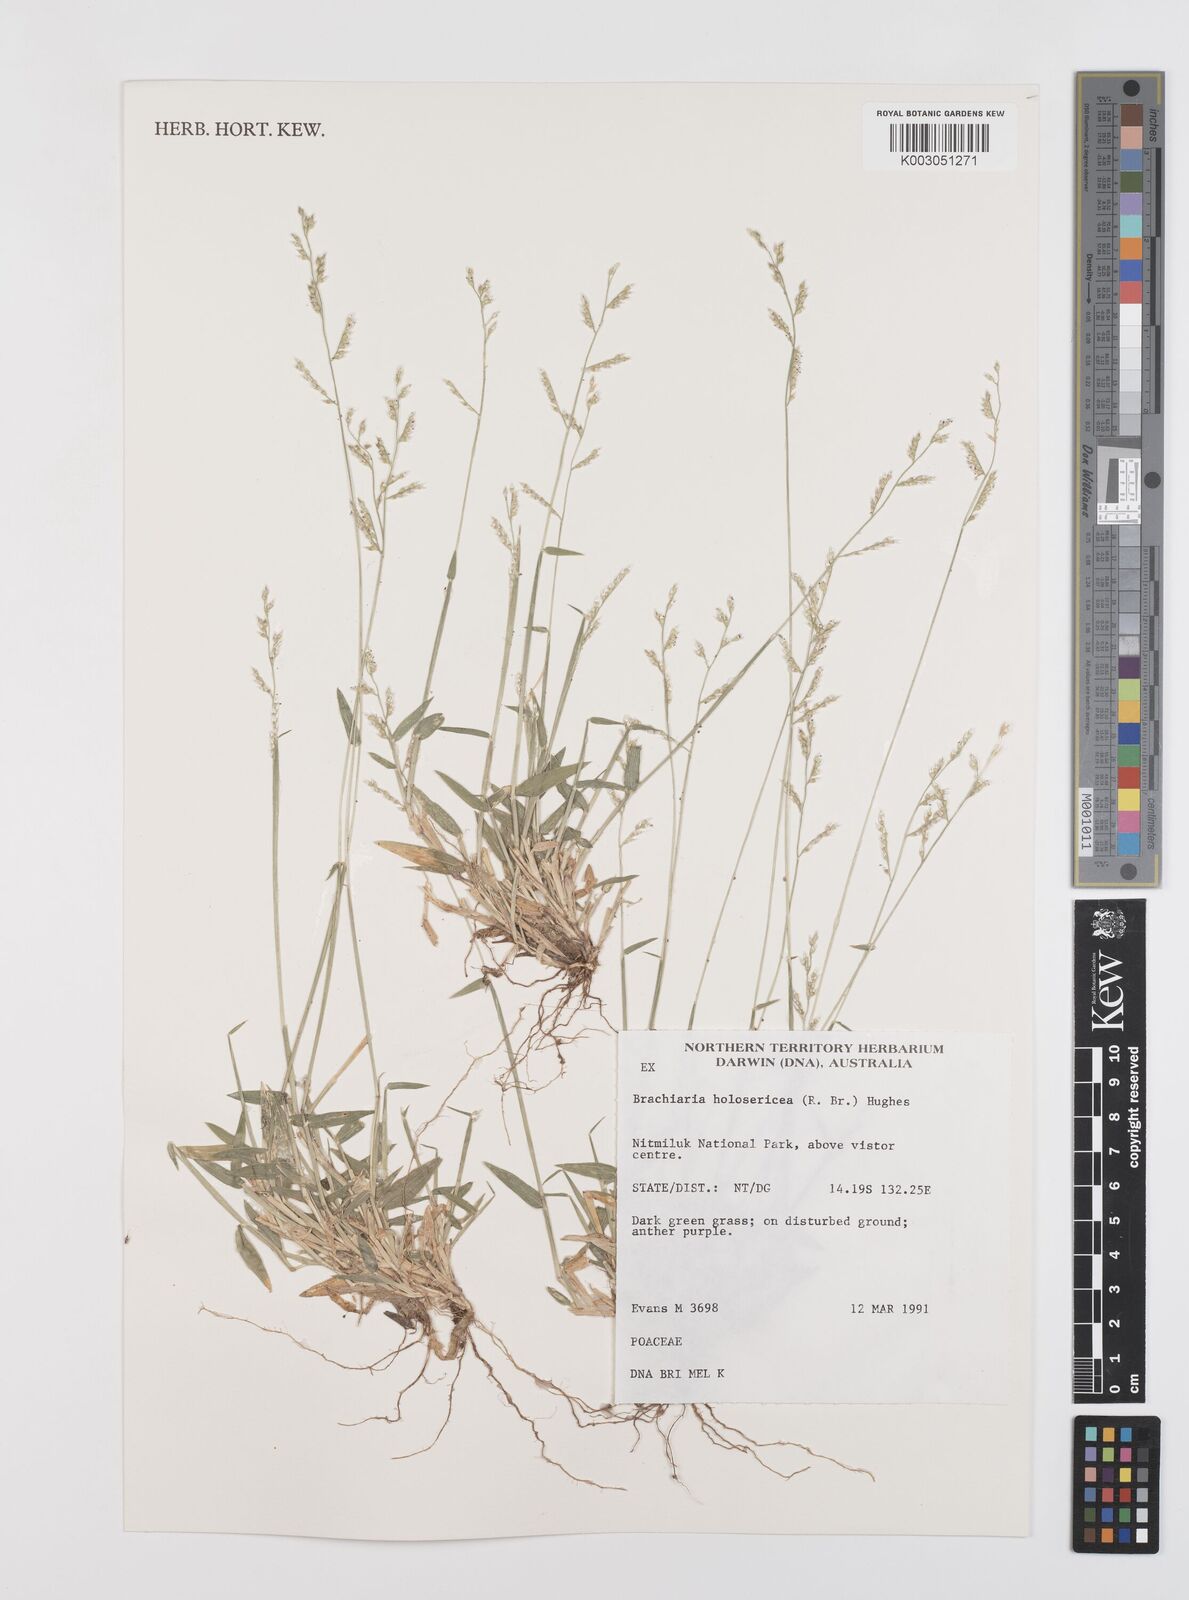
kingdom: Plantae
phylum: Tracheophyta
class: Liliopsida
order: Poales
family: Poaceae
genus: Urochloa
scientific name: Urochloa holosericea
